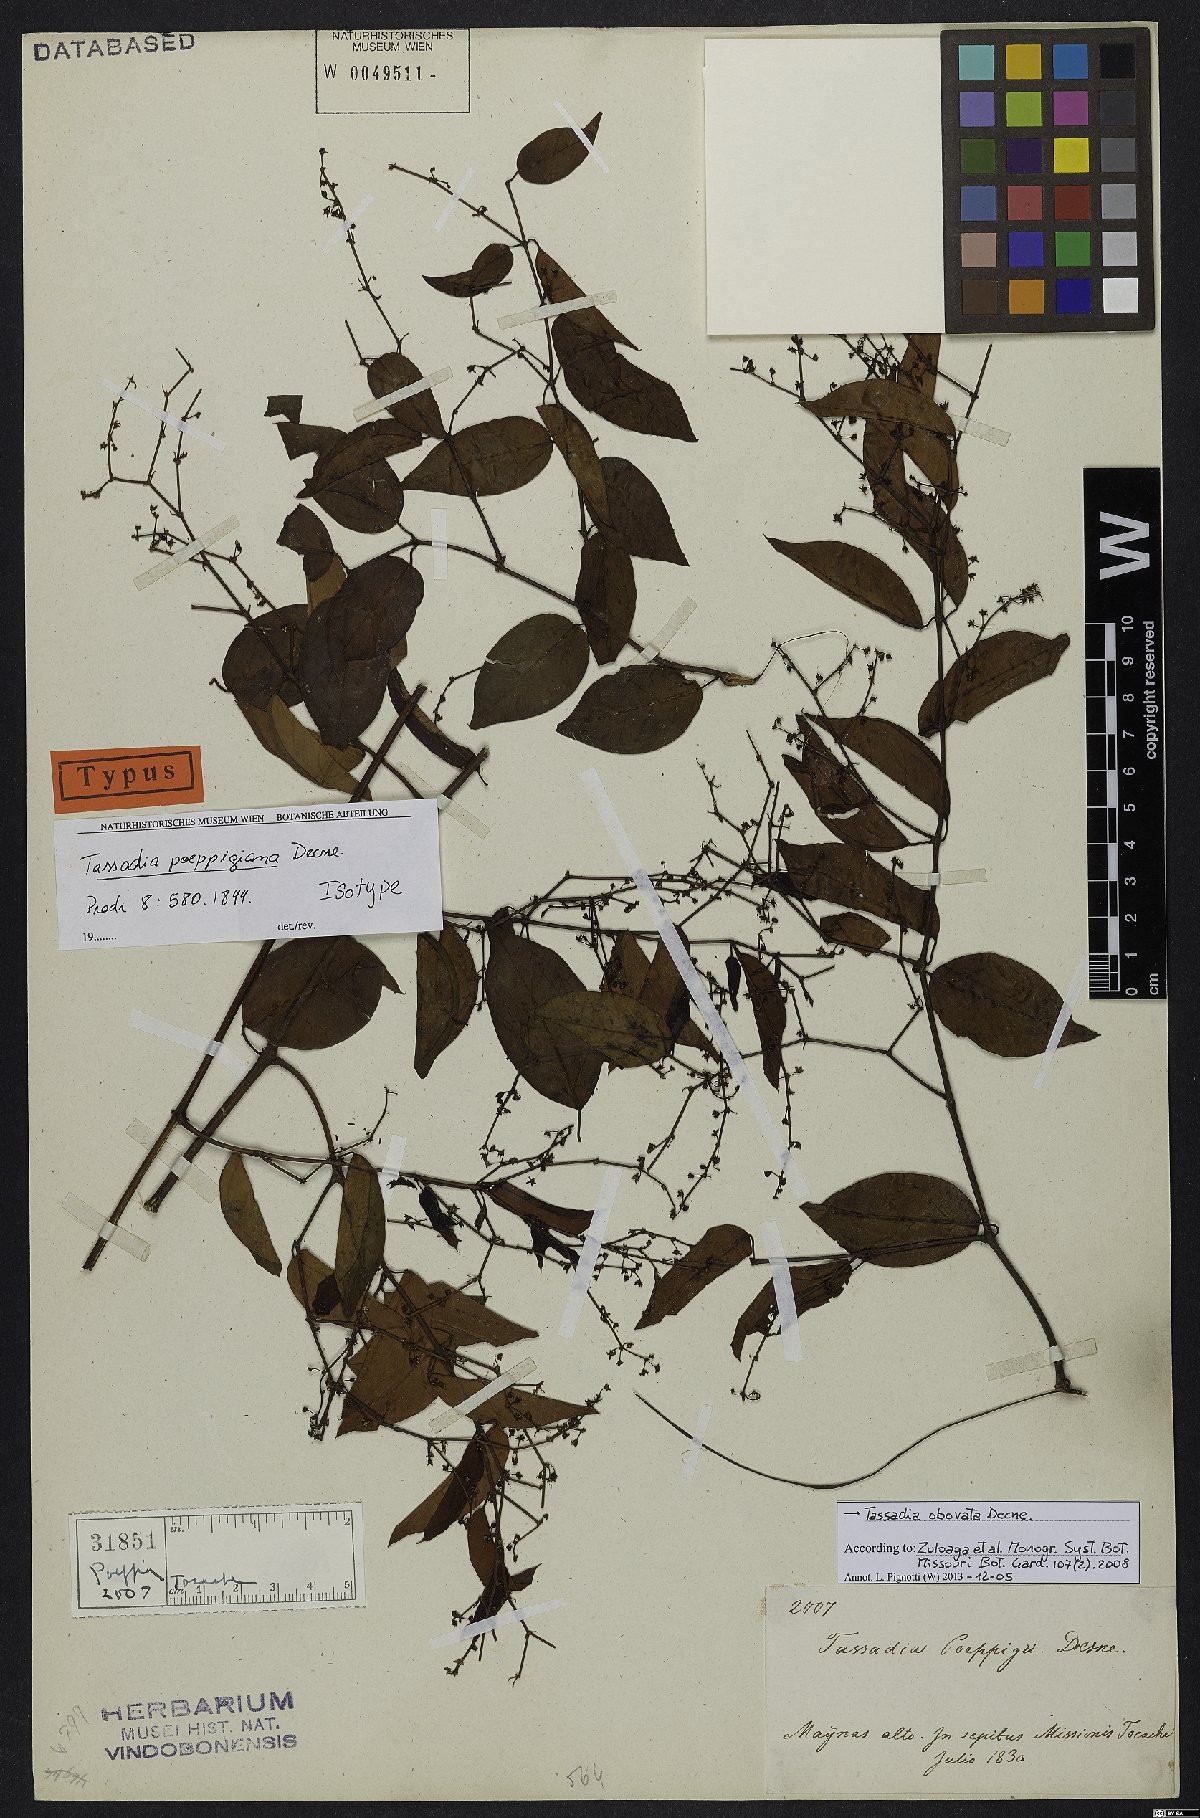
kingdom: Plantae
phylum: Tracheophyta
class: Magnoliopsida
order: Gentianales
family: Apocynaceae
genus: Tassadia
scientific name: Tassadia obovata
